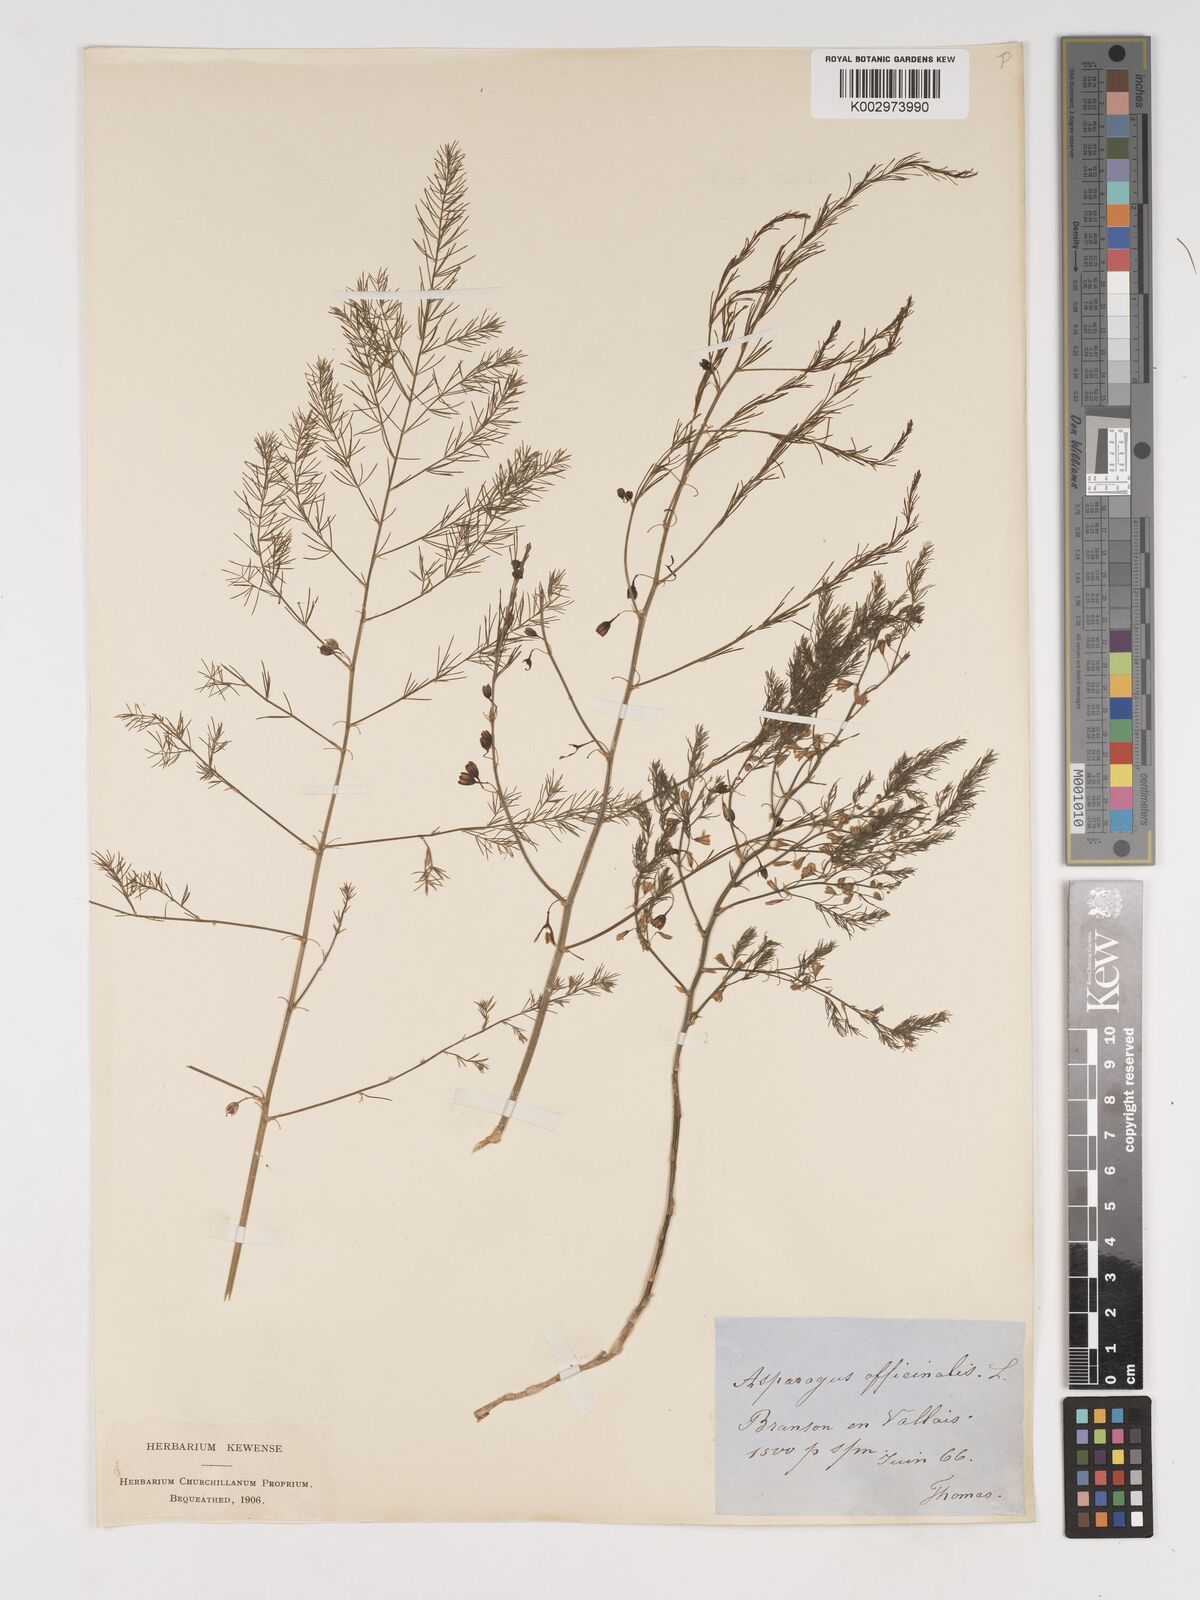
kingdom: Plantae
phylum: Tracheophyta
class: Liliopsida
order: Asparagales
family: Asparagaceae
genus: Asparagus
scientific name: Asparagus officinalis
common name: Garden asparagus
